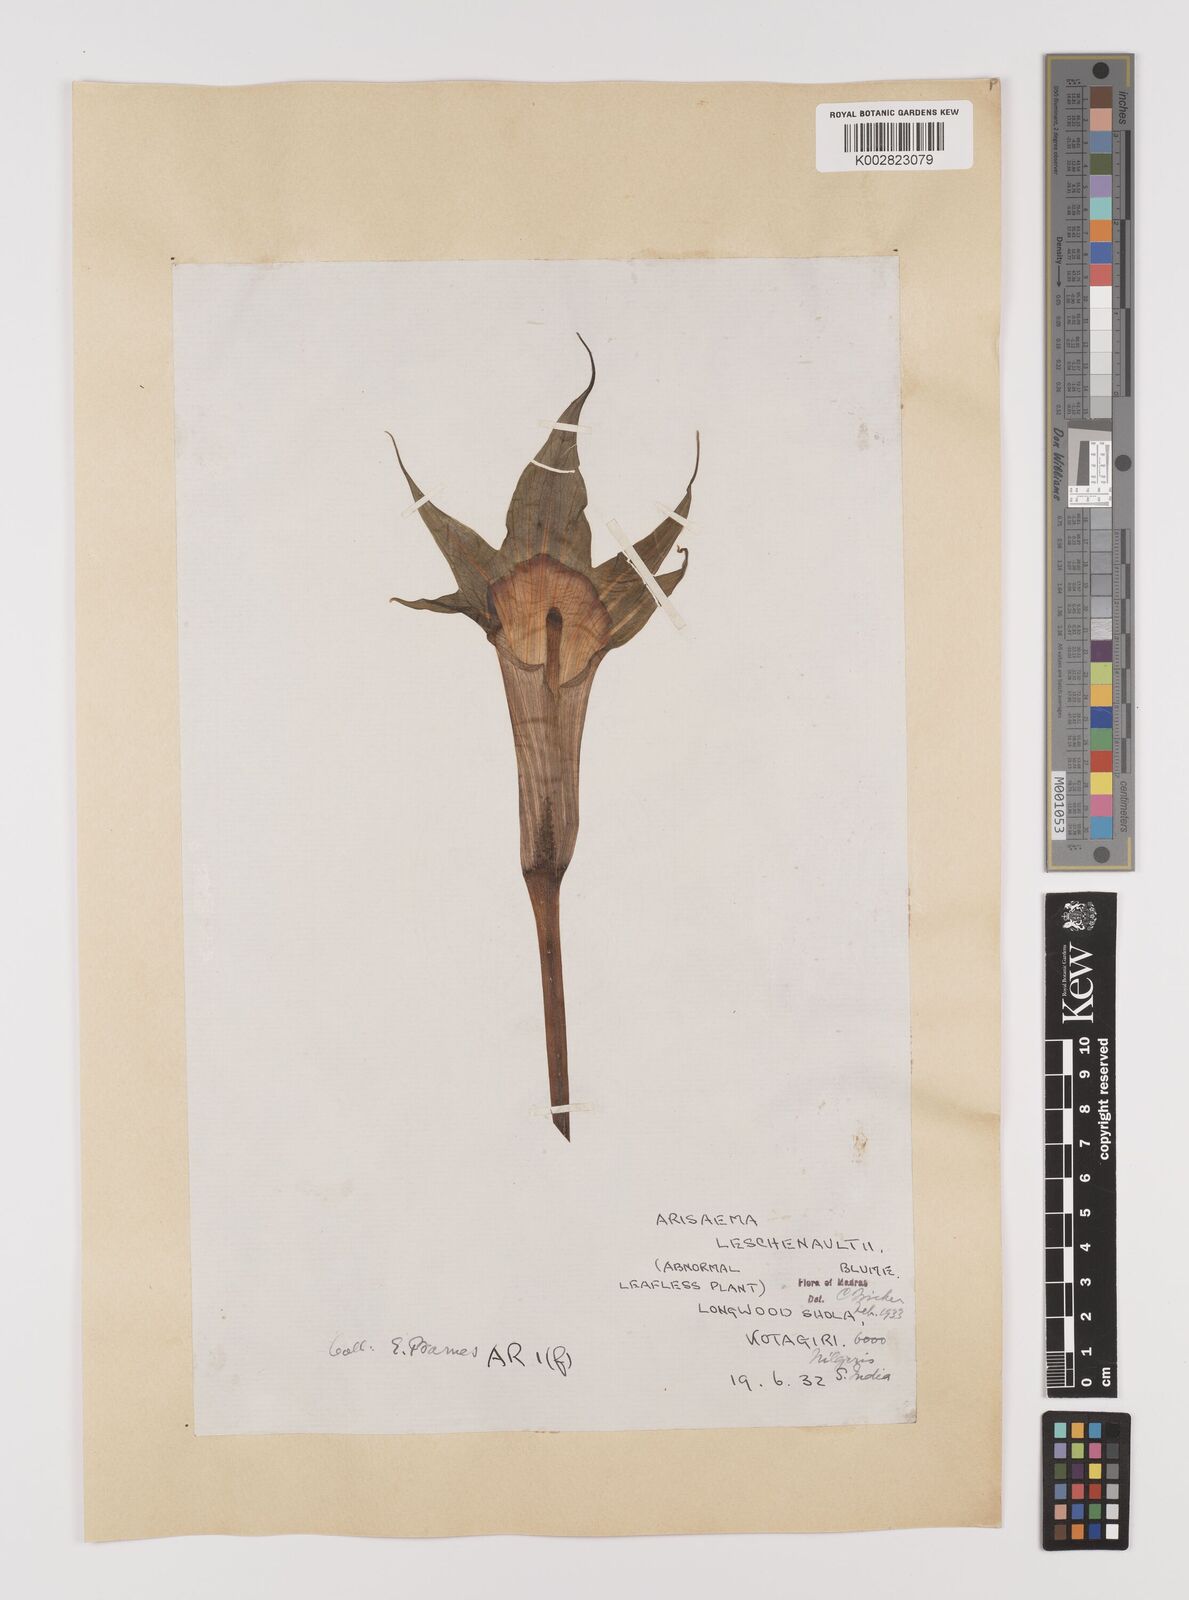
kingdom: Plantae
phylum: Tracheophyta
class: Liliopsida
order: Alismatales
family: Araceae
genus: Arisaema
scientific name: Arisaema leschenaultii
